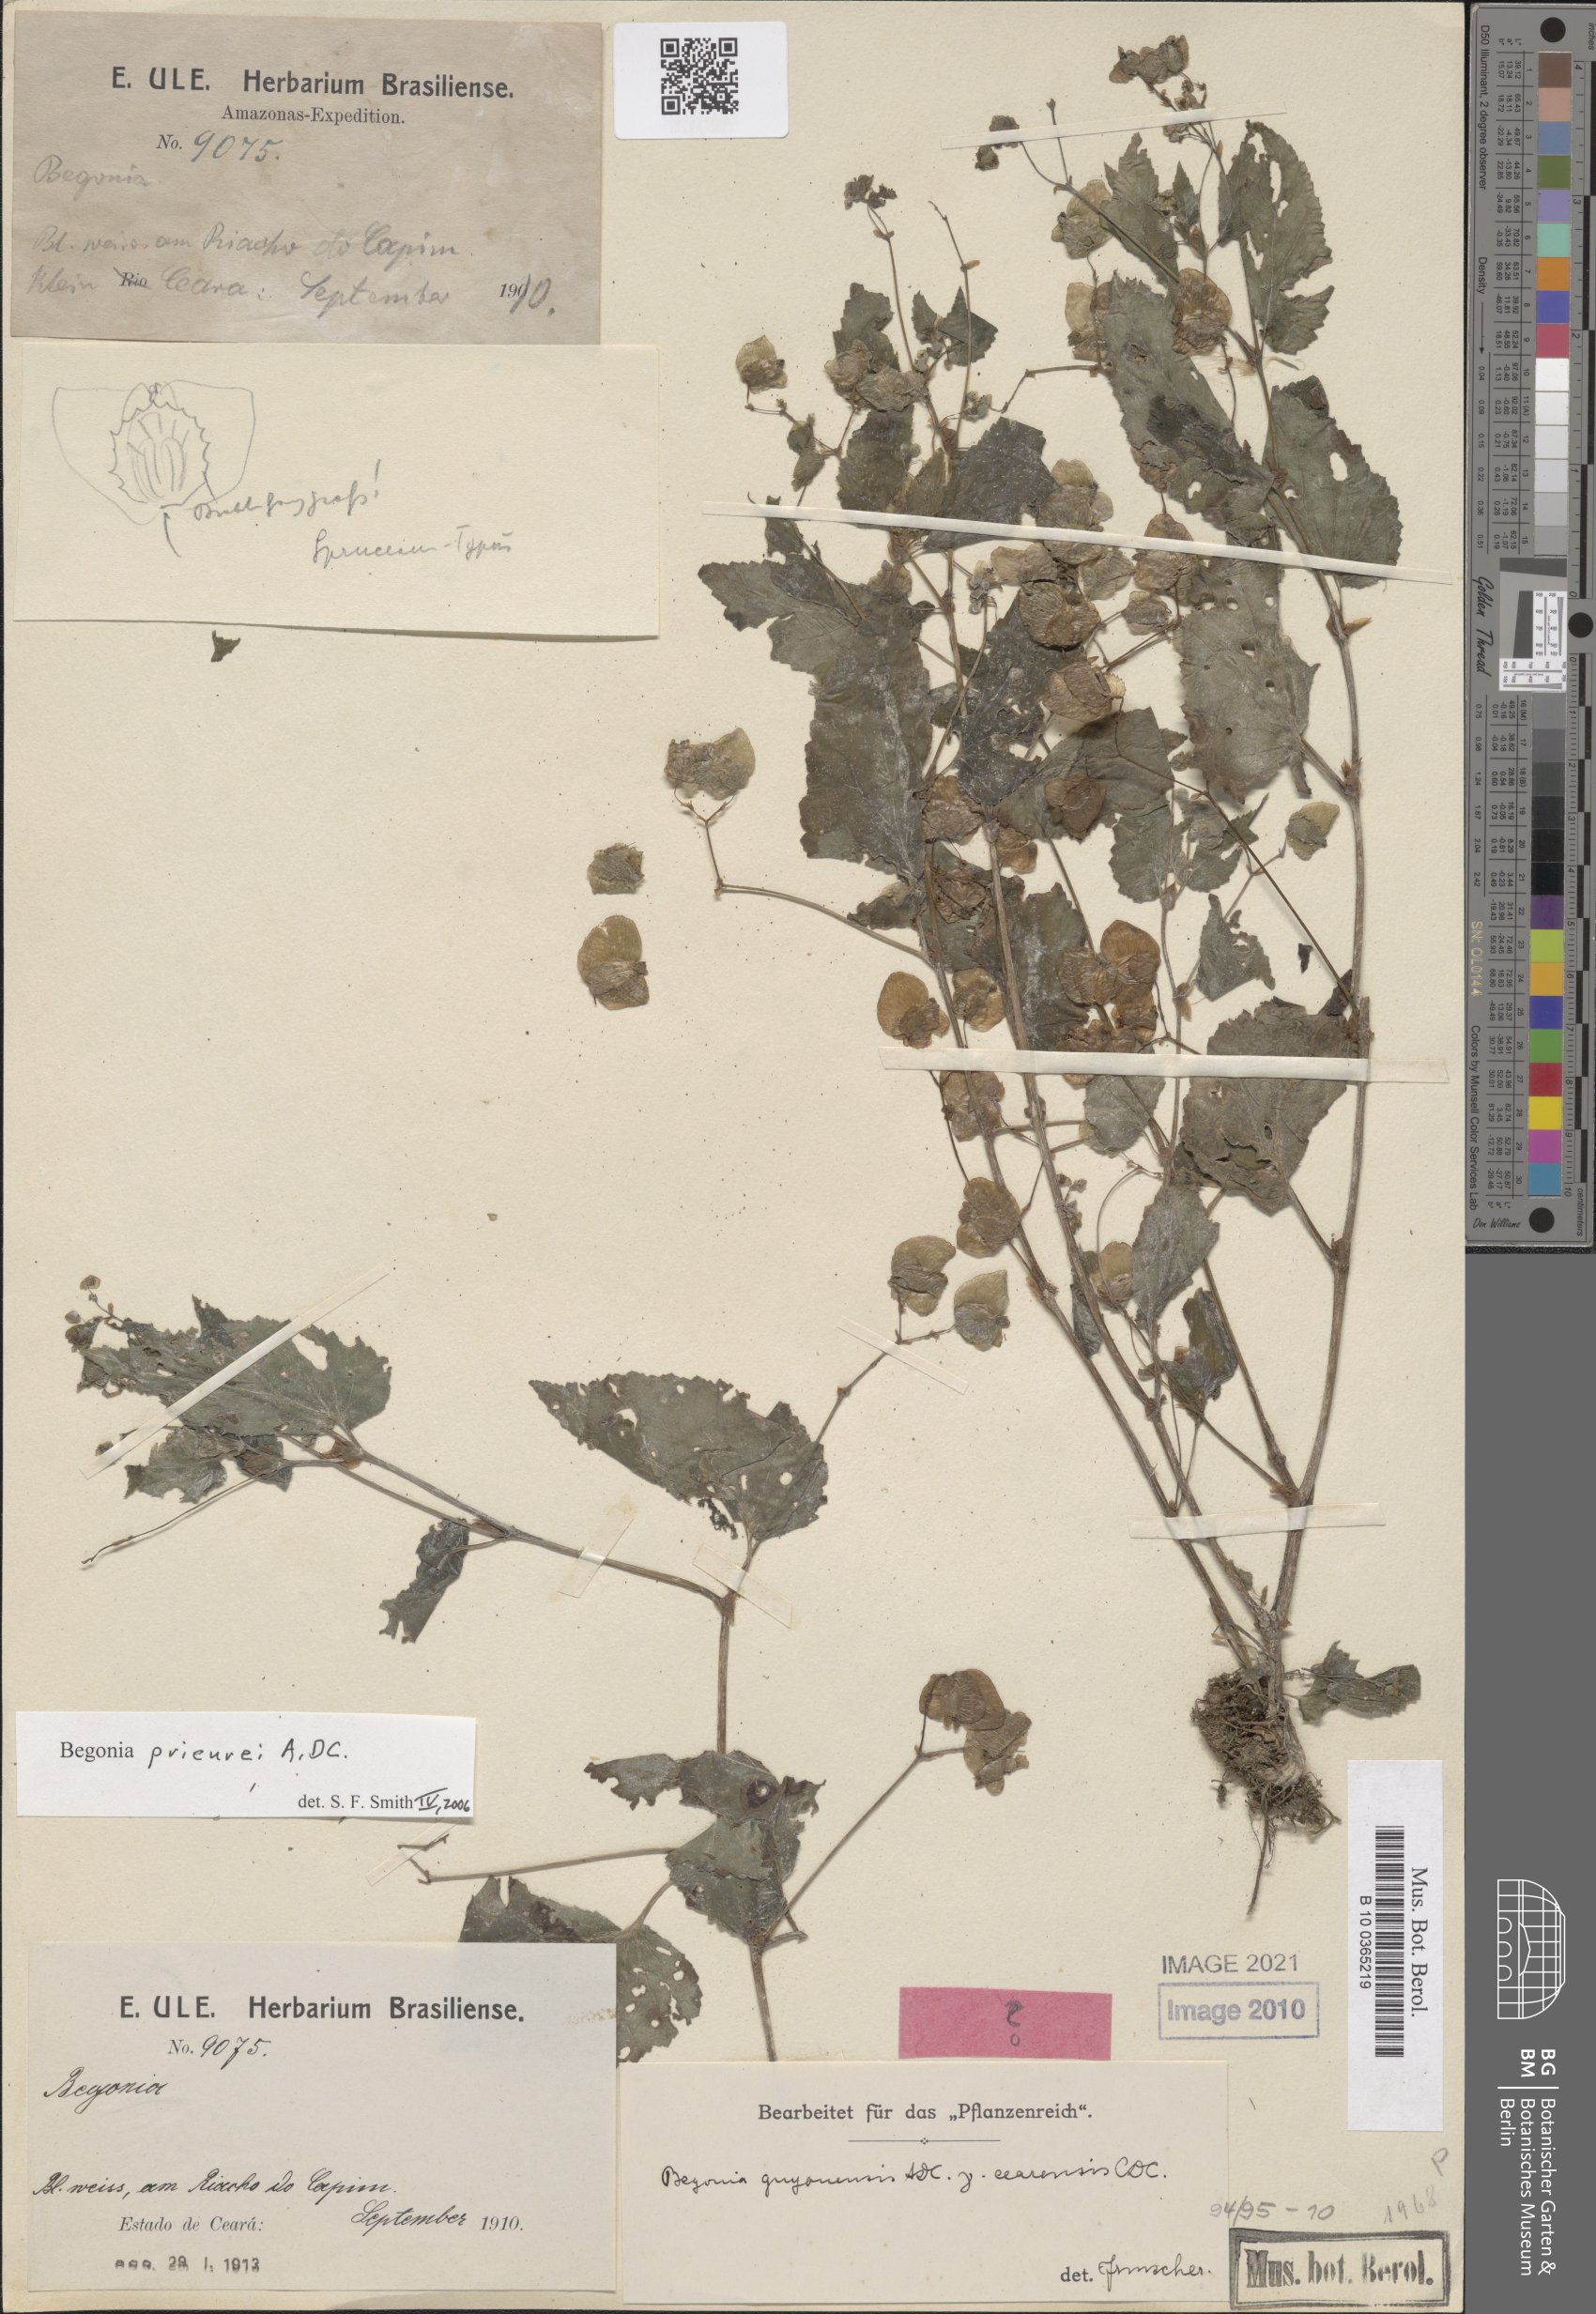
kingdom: Plantae
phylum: Tracheophyta
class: Magnoliopsida
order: Cucurbitales
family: Begoniaceae
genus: Begonia
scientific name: Begonia prieurii
